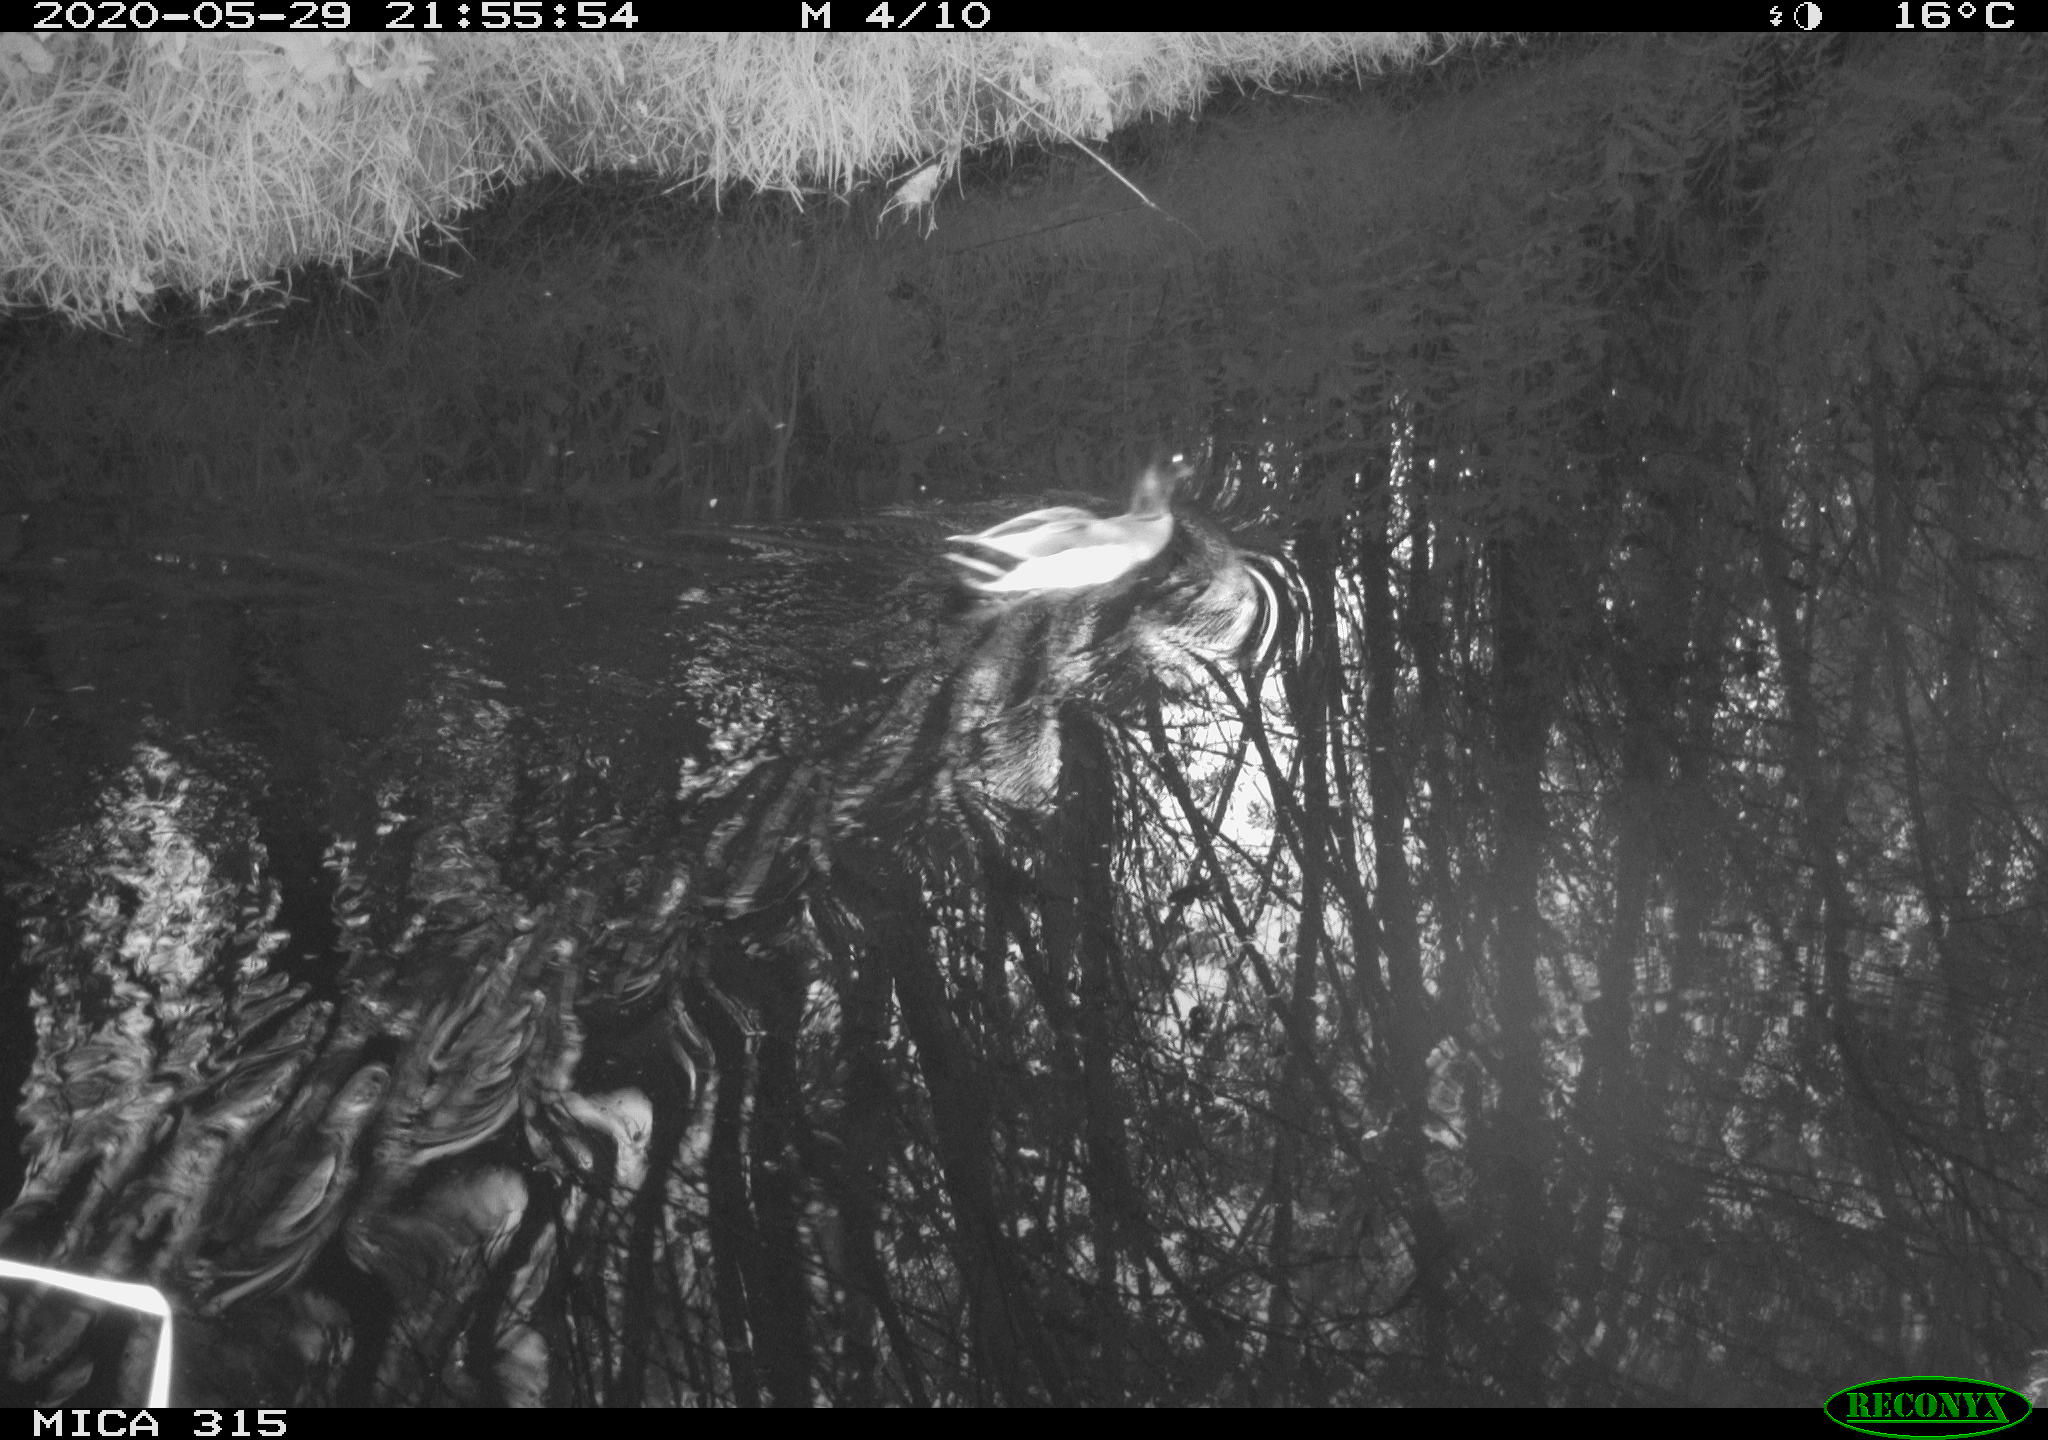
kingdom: Animalia
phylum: Chordata
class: Aves
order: Anseriformes
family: Anatidae
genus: Anas
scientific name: Anas platyrhynchos
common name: Mallard
